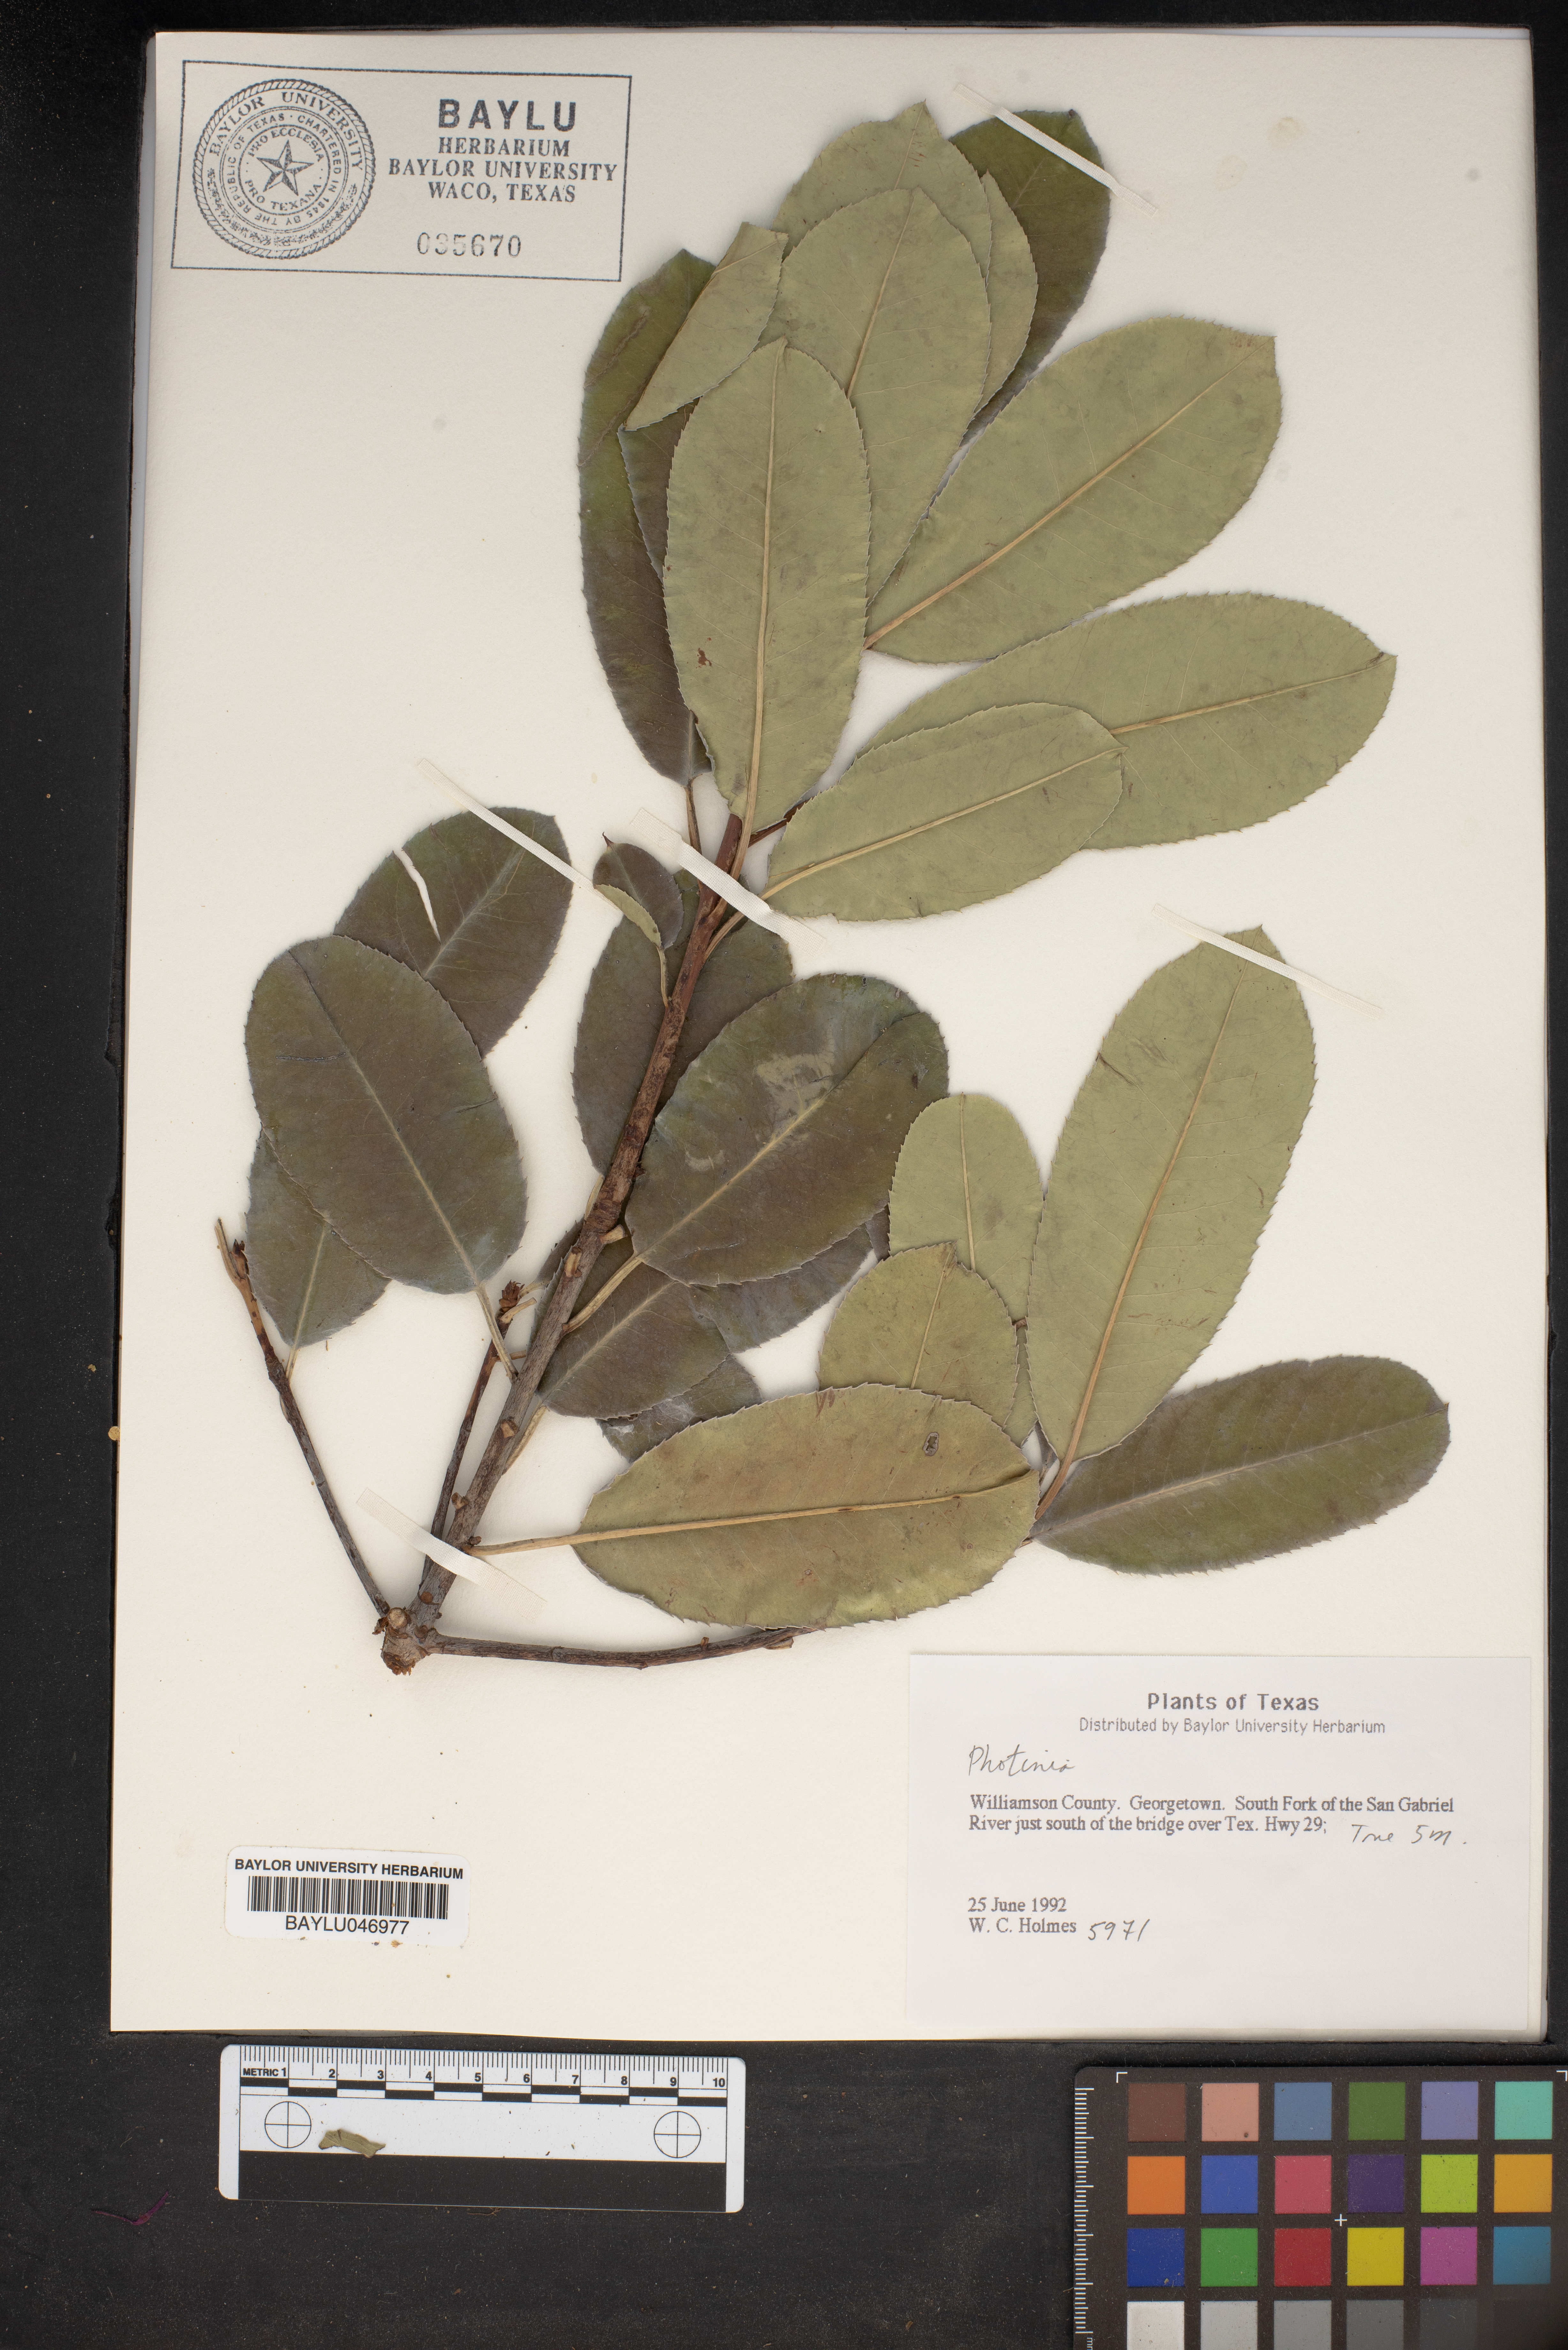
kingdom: Plantae
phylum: Tracheophyta
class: Magnoliopsida
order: Rosales
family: Rosaceae
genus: Photinia
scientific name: Photinia
